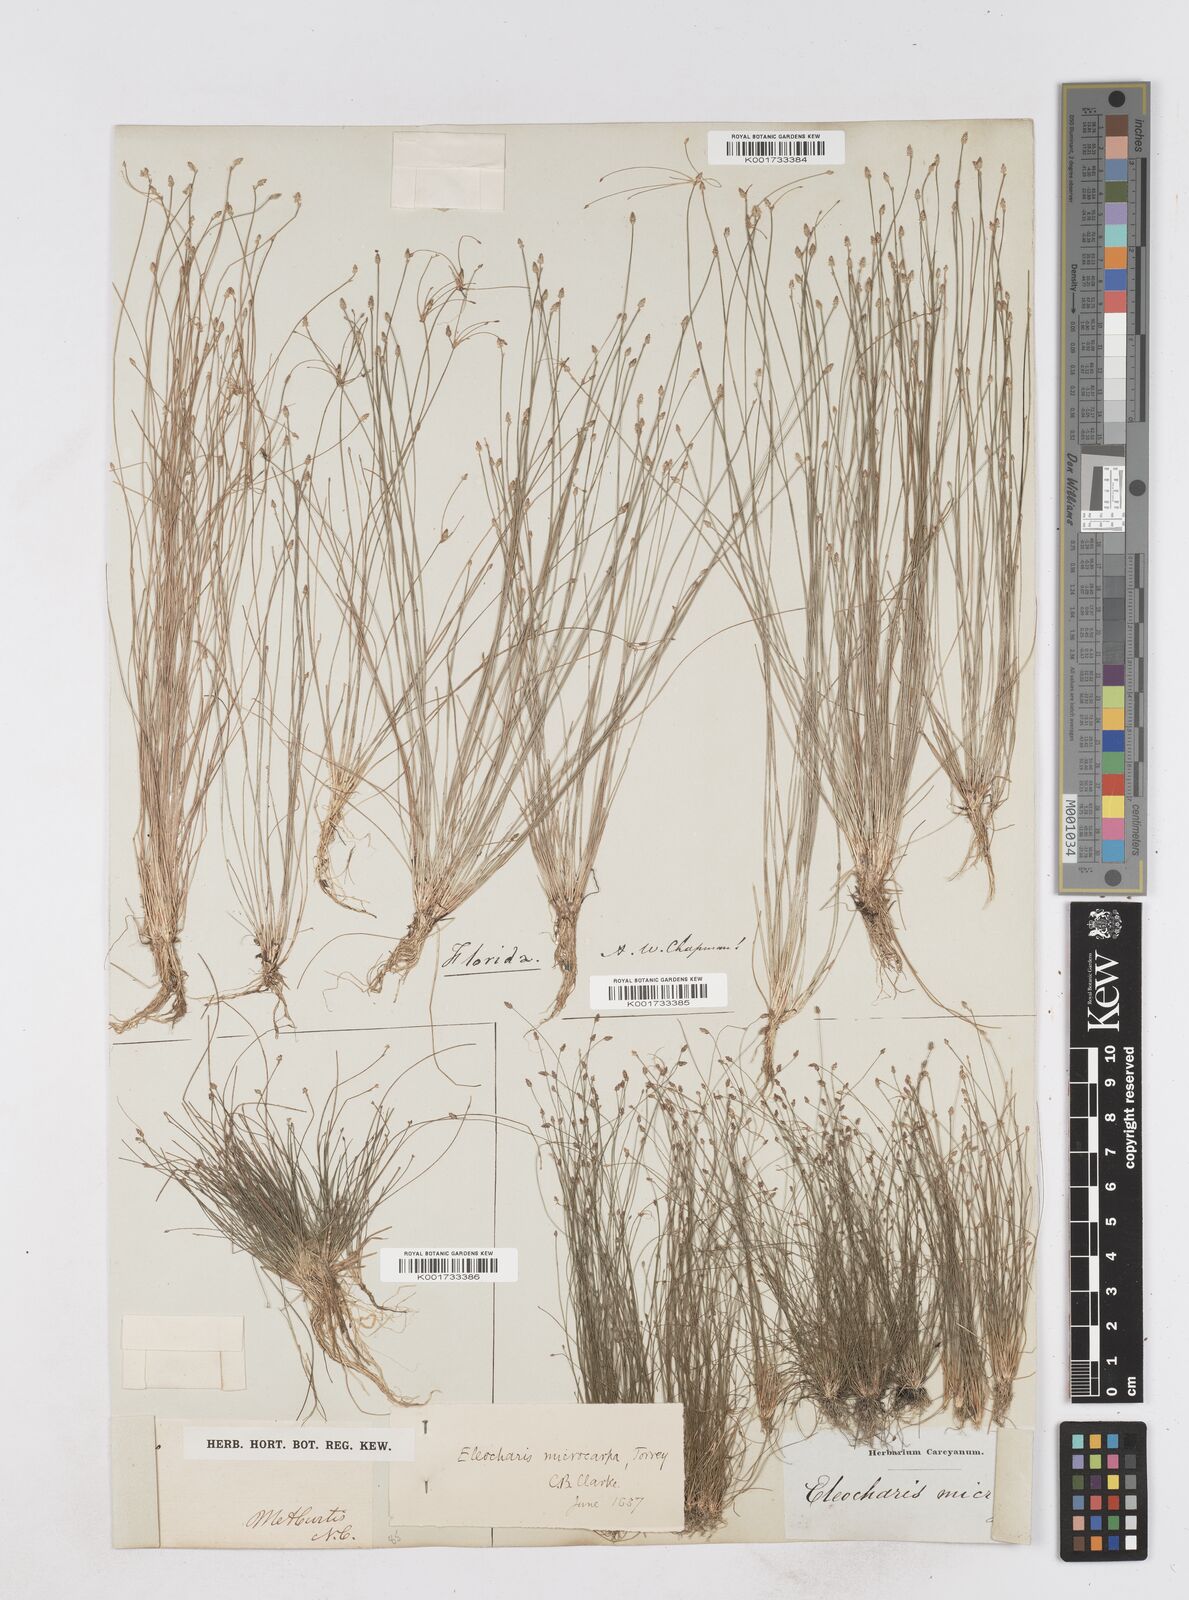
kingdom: Plantae
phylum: Tracheophyta
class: Liliopsida
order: Poales
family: Cyperaceae
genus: Eleocharis
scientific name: Eleocharis microcarpa
